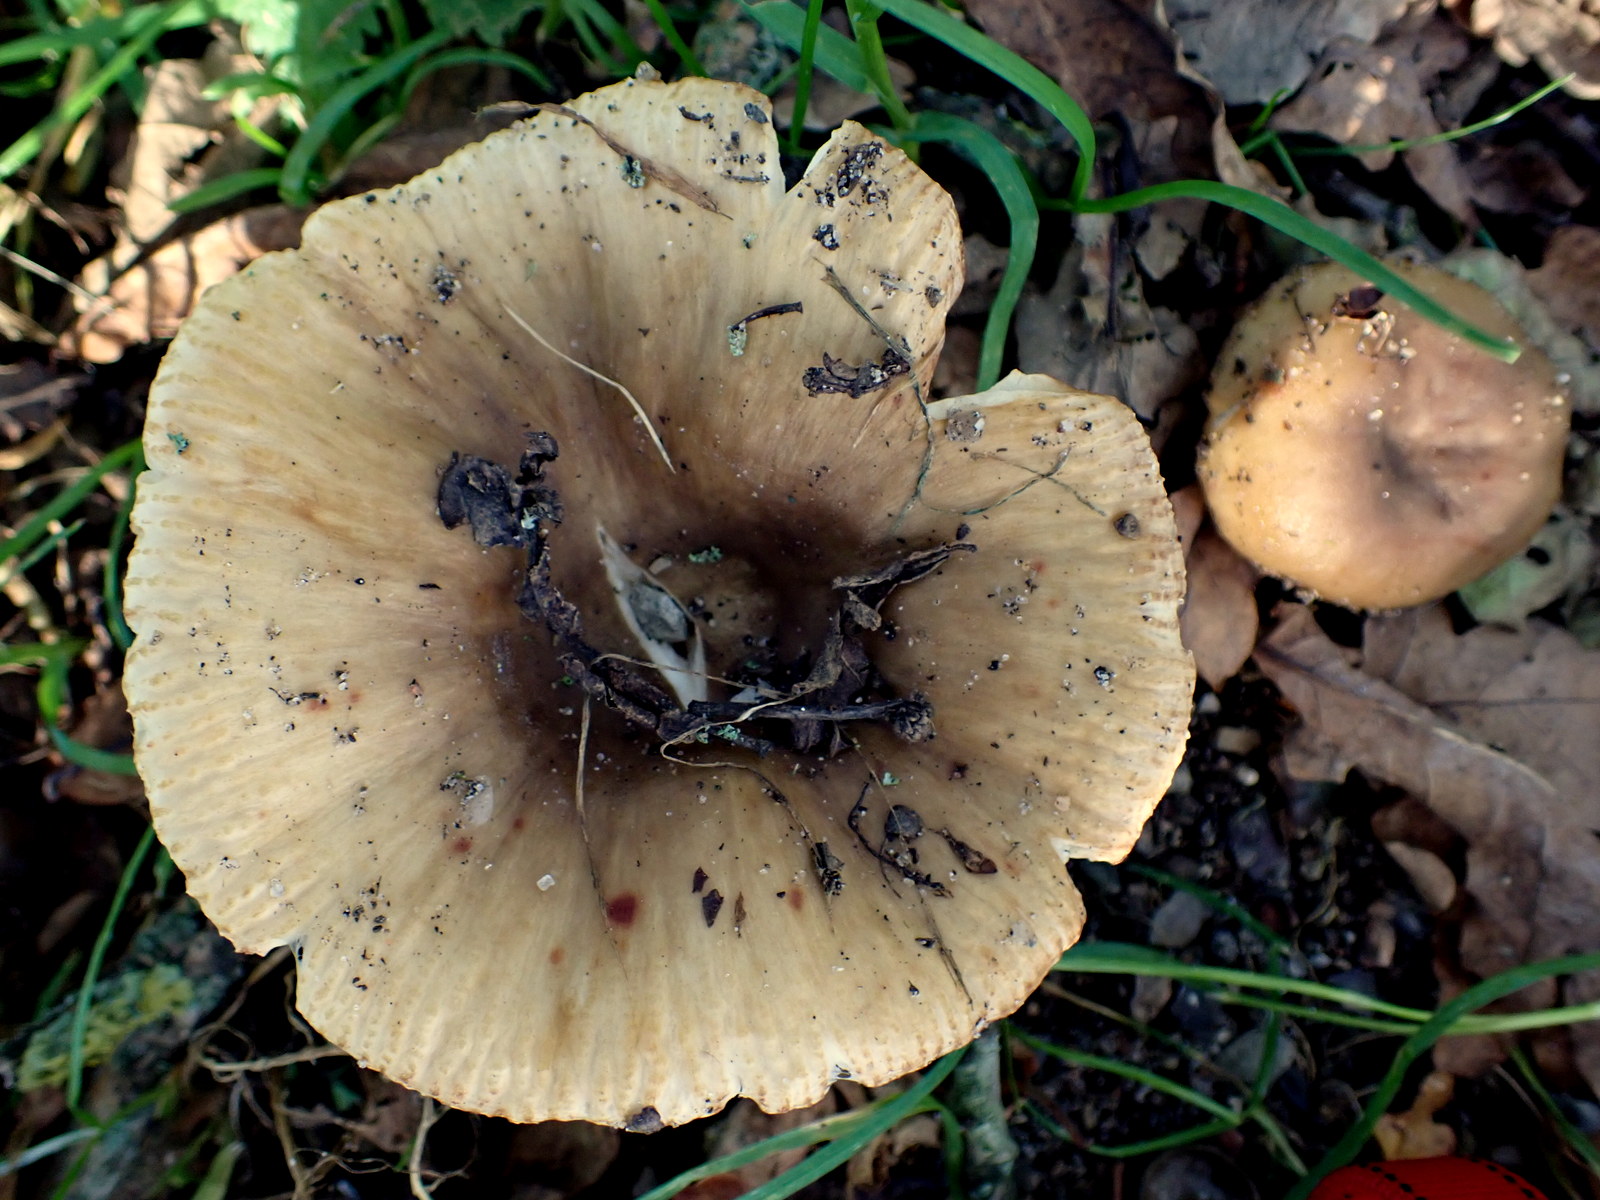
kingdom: Fungi
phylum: Basidiomycota
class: Agaricomycetes
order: Russulales
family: Russulaceae
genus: Russula
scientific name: Russula recondita
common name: mild kam-skørhat
